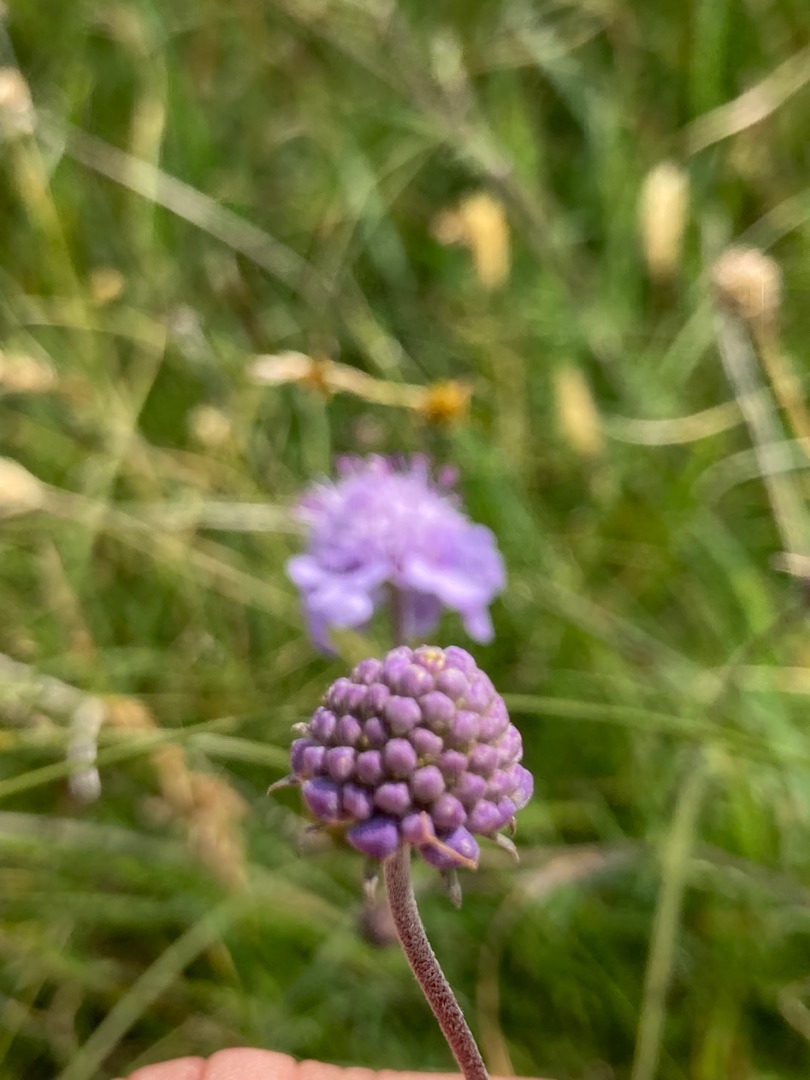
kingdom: Plantae
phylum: Tracheophyta
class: Magnoliopsida
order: Dipsacales
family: Caprifoliaceae
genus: Scabiosa
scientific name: Scabiosa canescens
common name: Vellugtende skabiose
